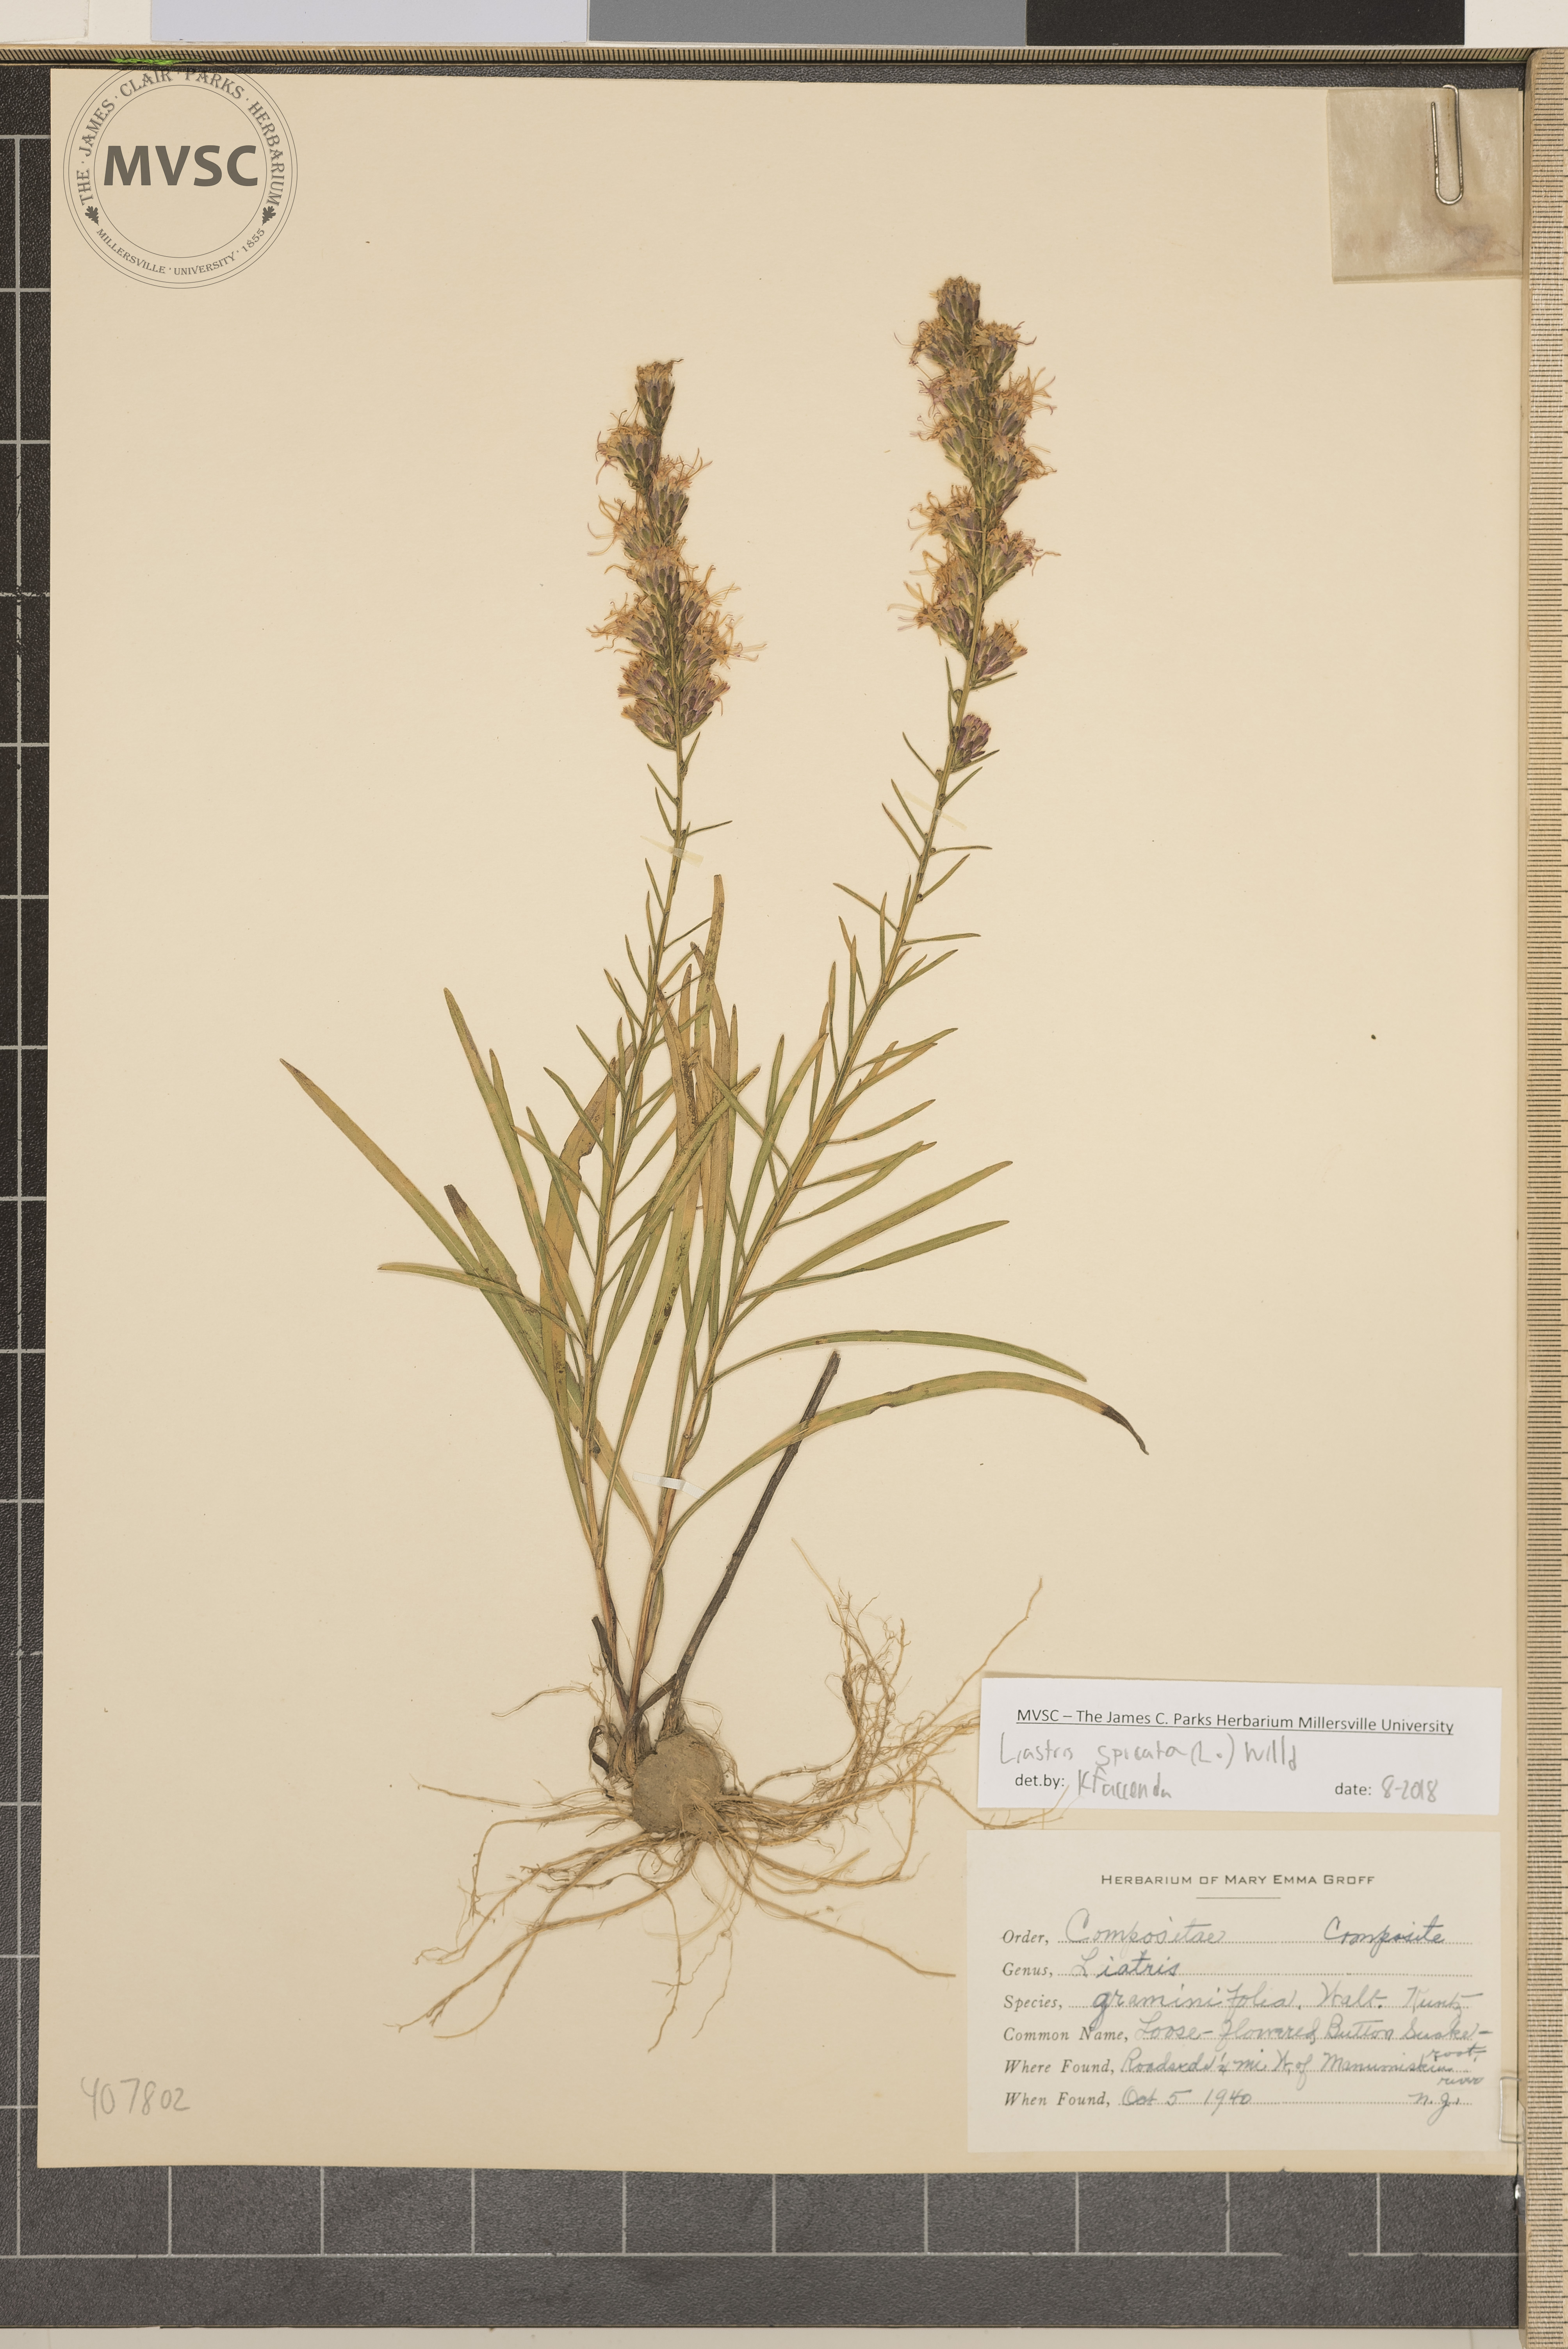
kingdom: Plantae
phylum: Tracheophyta
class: Magnoliopsida
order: Asterales
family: Asteraceae
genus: Liatris
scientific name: Liatris spicata
